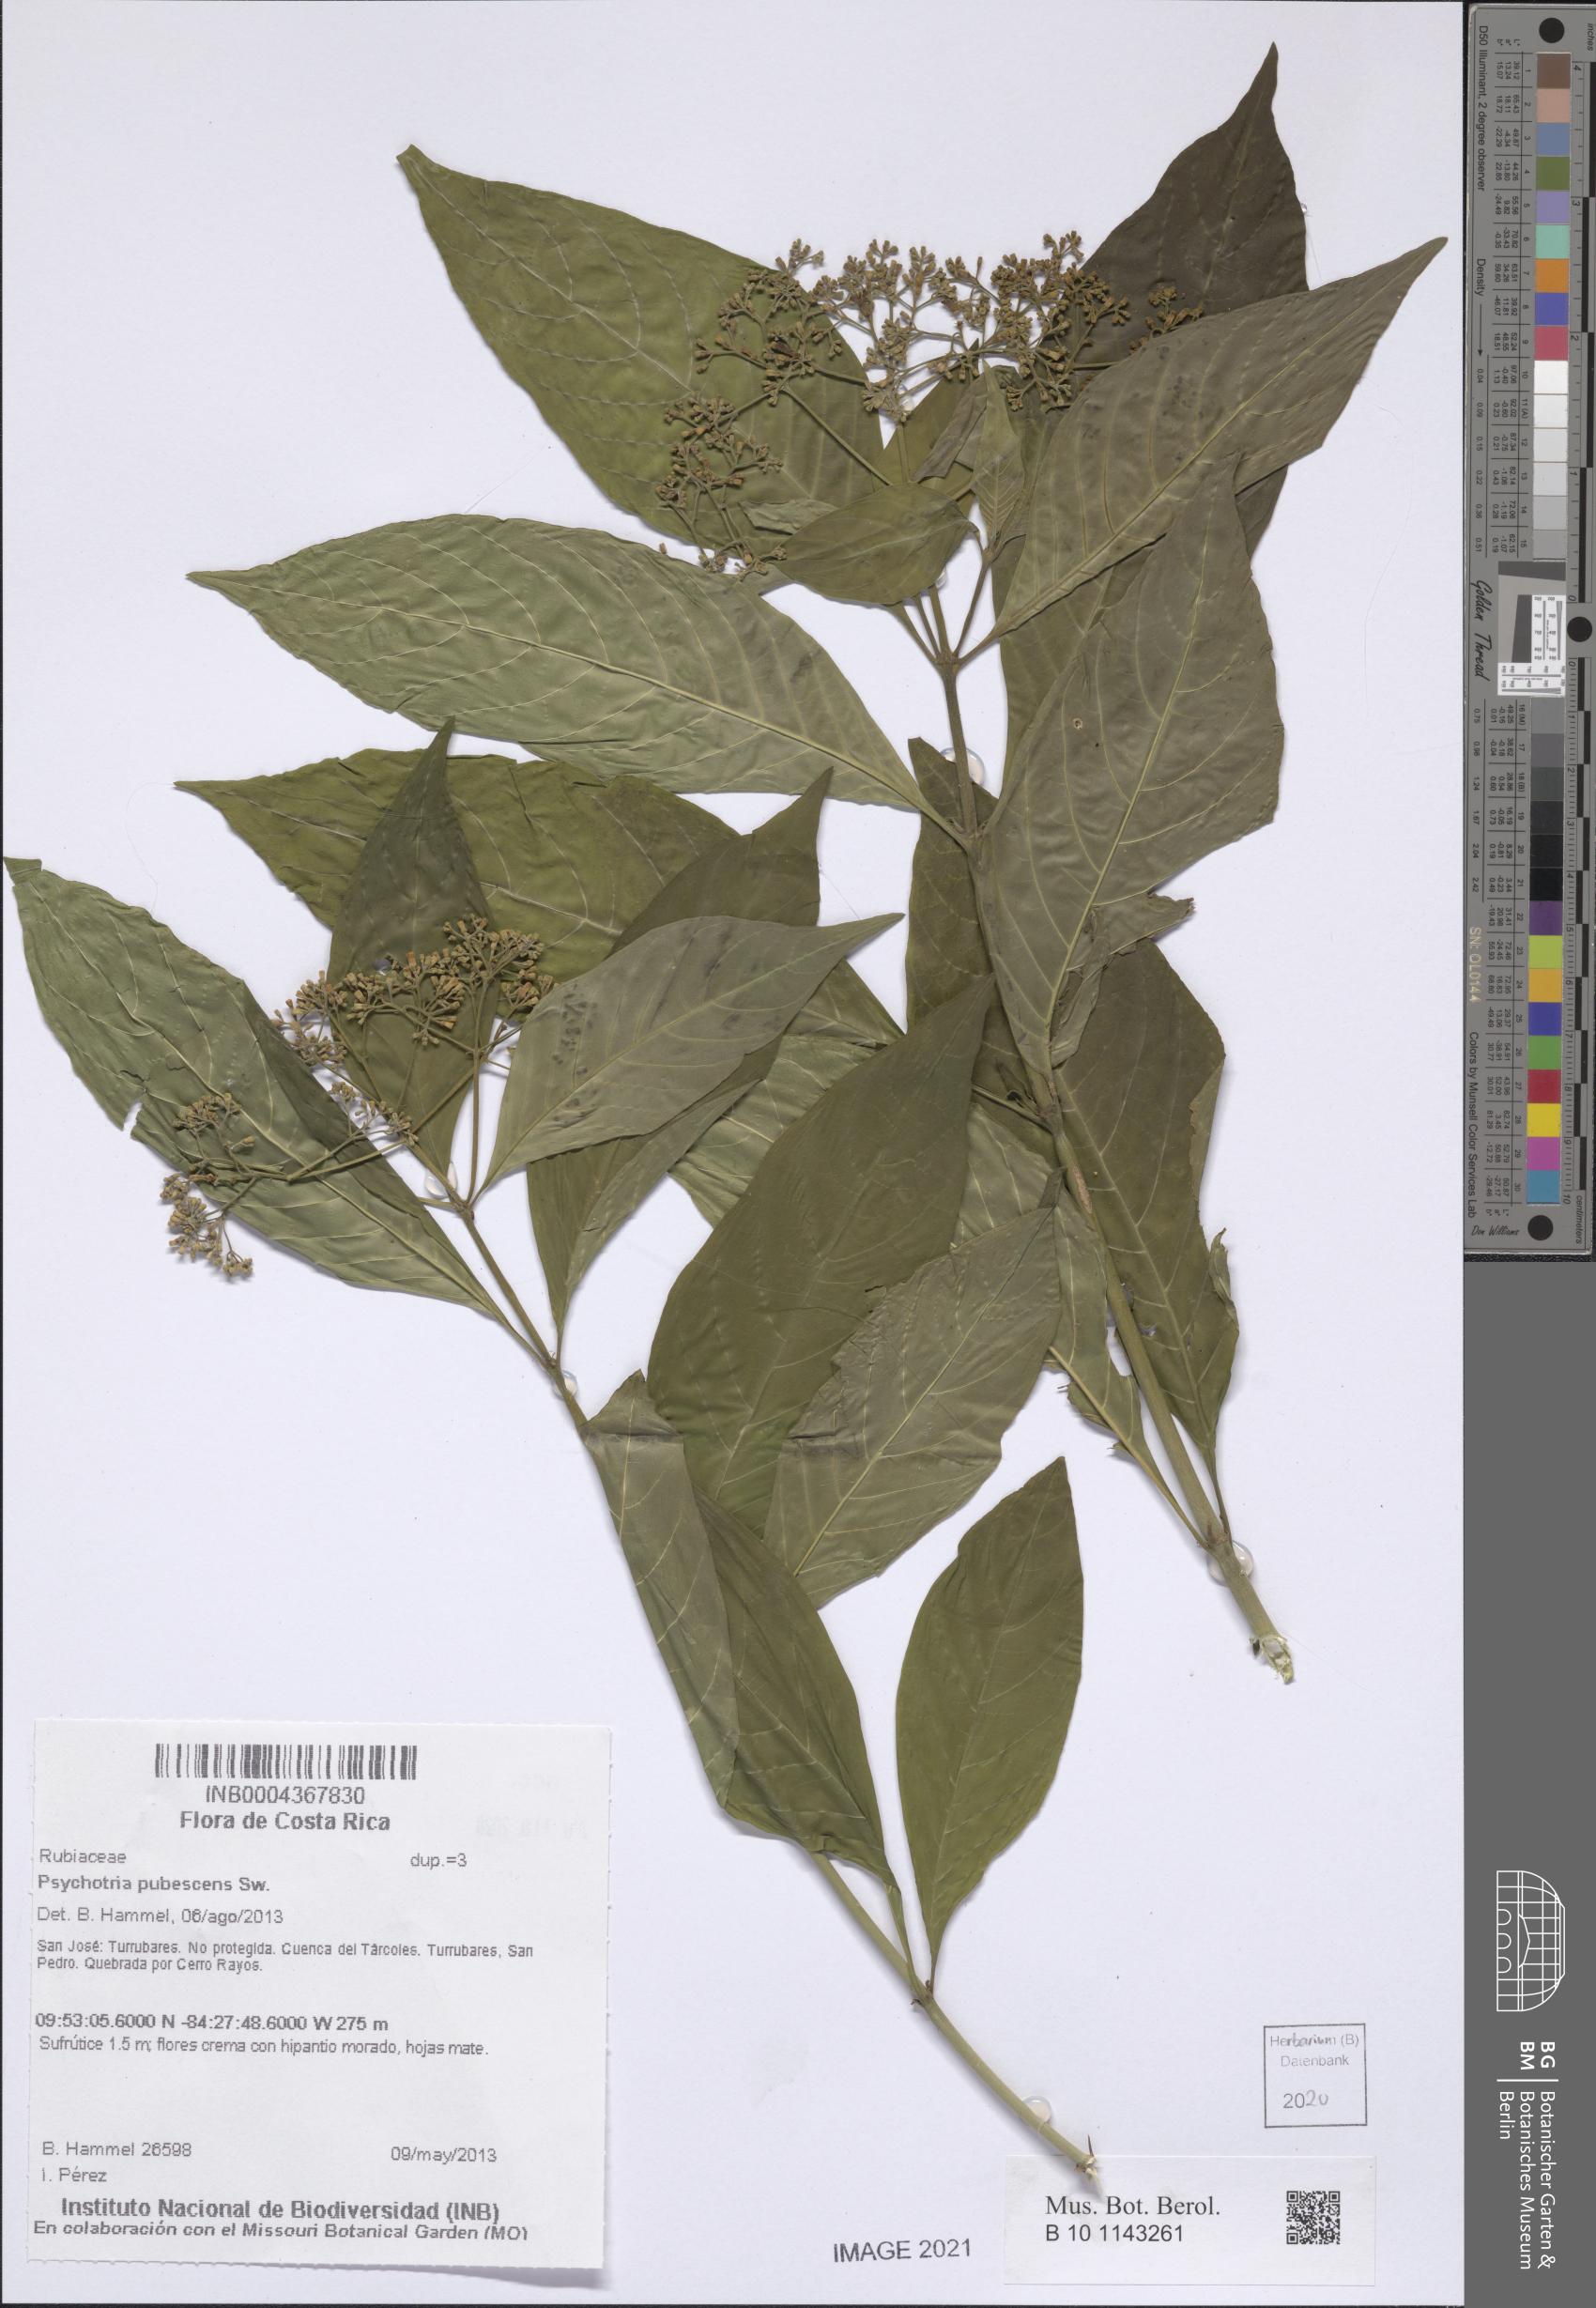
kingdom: Plantae
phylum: Tracheophyta
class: Magnoliopsida
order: Gentianales
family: Rubiaceae
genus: Palicourea
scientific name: Palicourea pubescens
